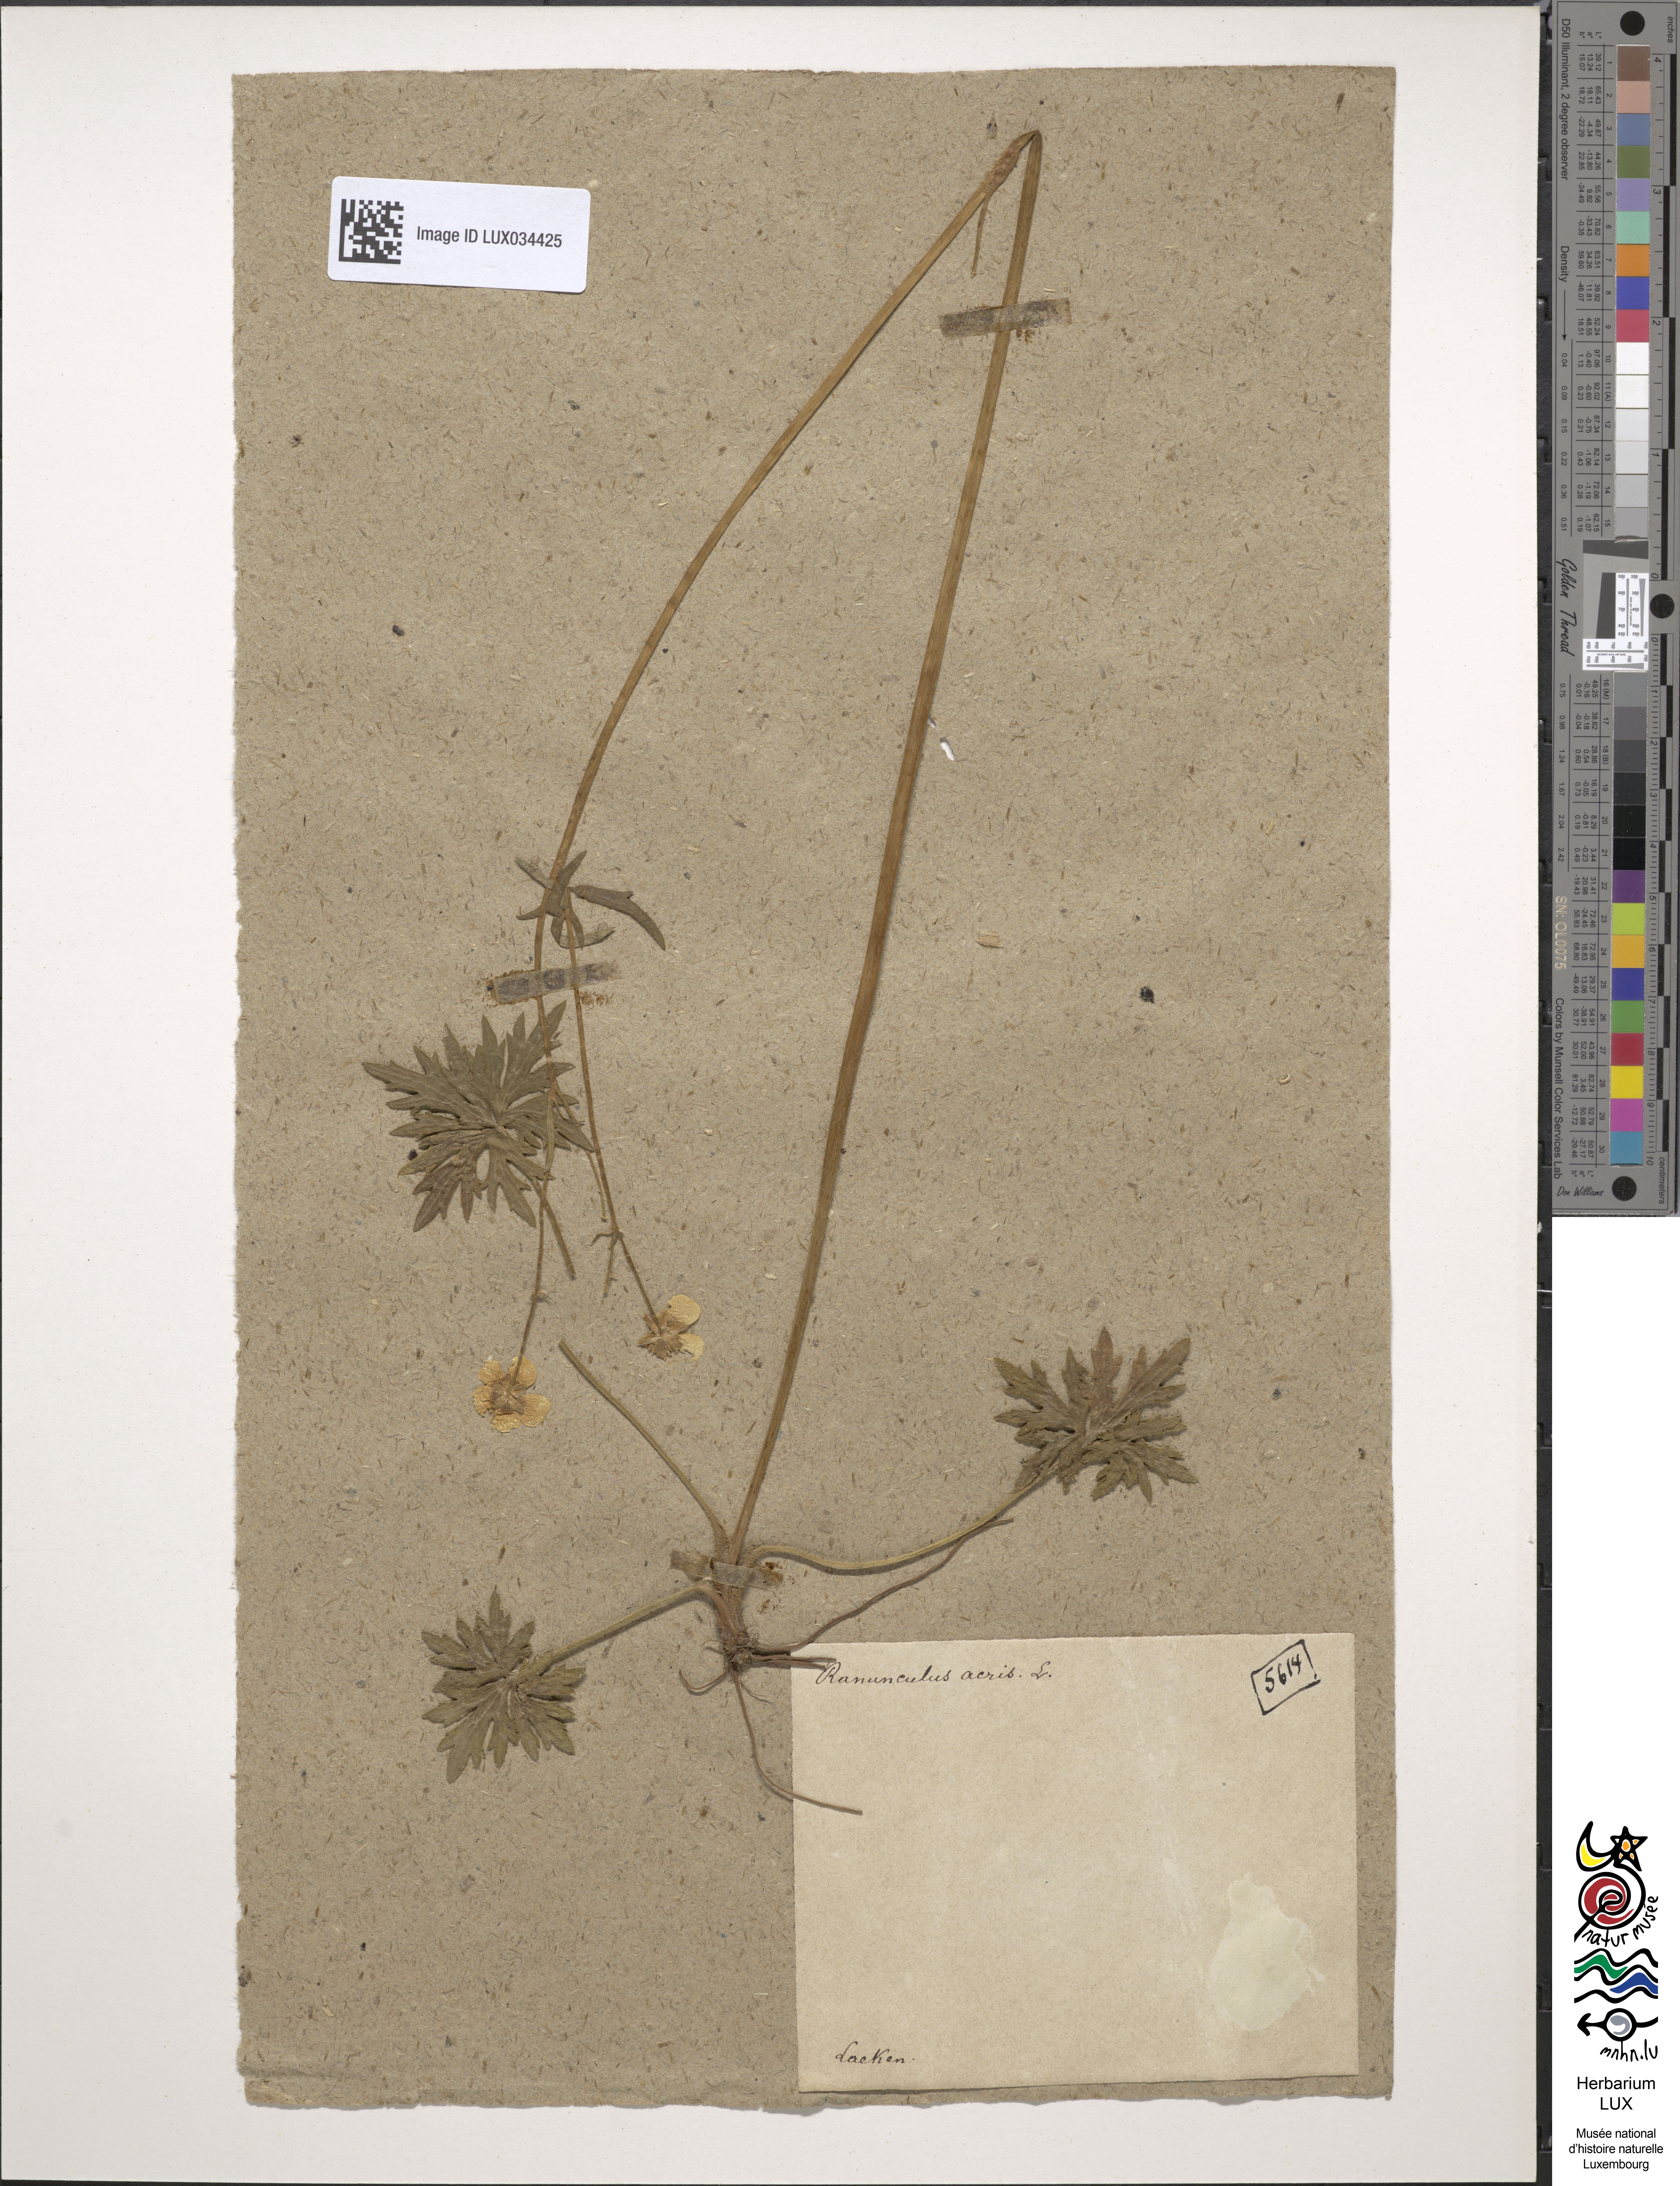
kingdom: Plantae
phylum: Tracheophyta
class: Magnoliopsida
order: Ranunculales
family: Ranunculaceae
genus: Ranunculus
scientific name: Ranunculus acris
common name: Meadow buttercup
